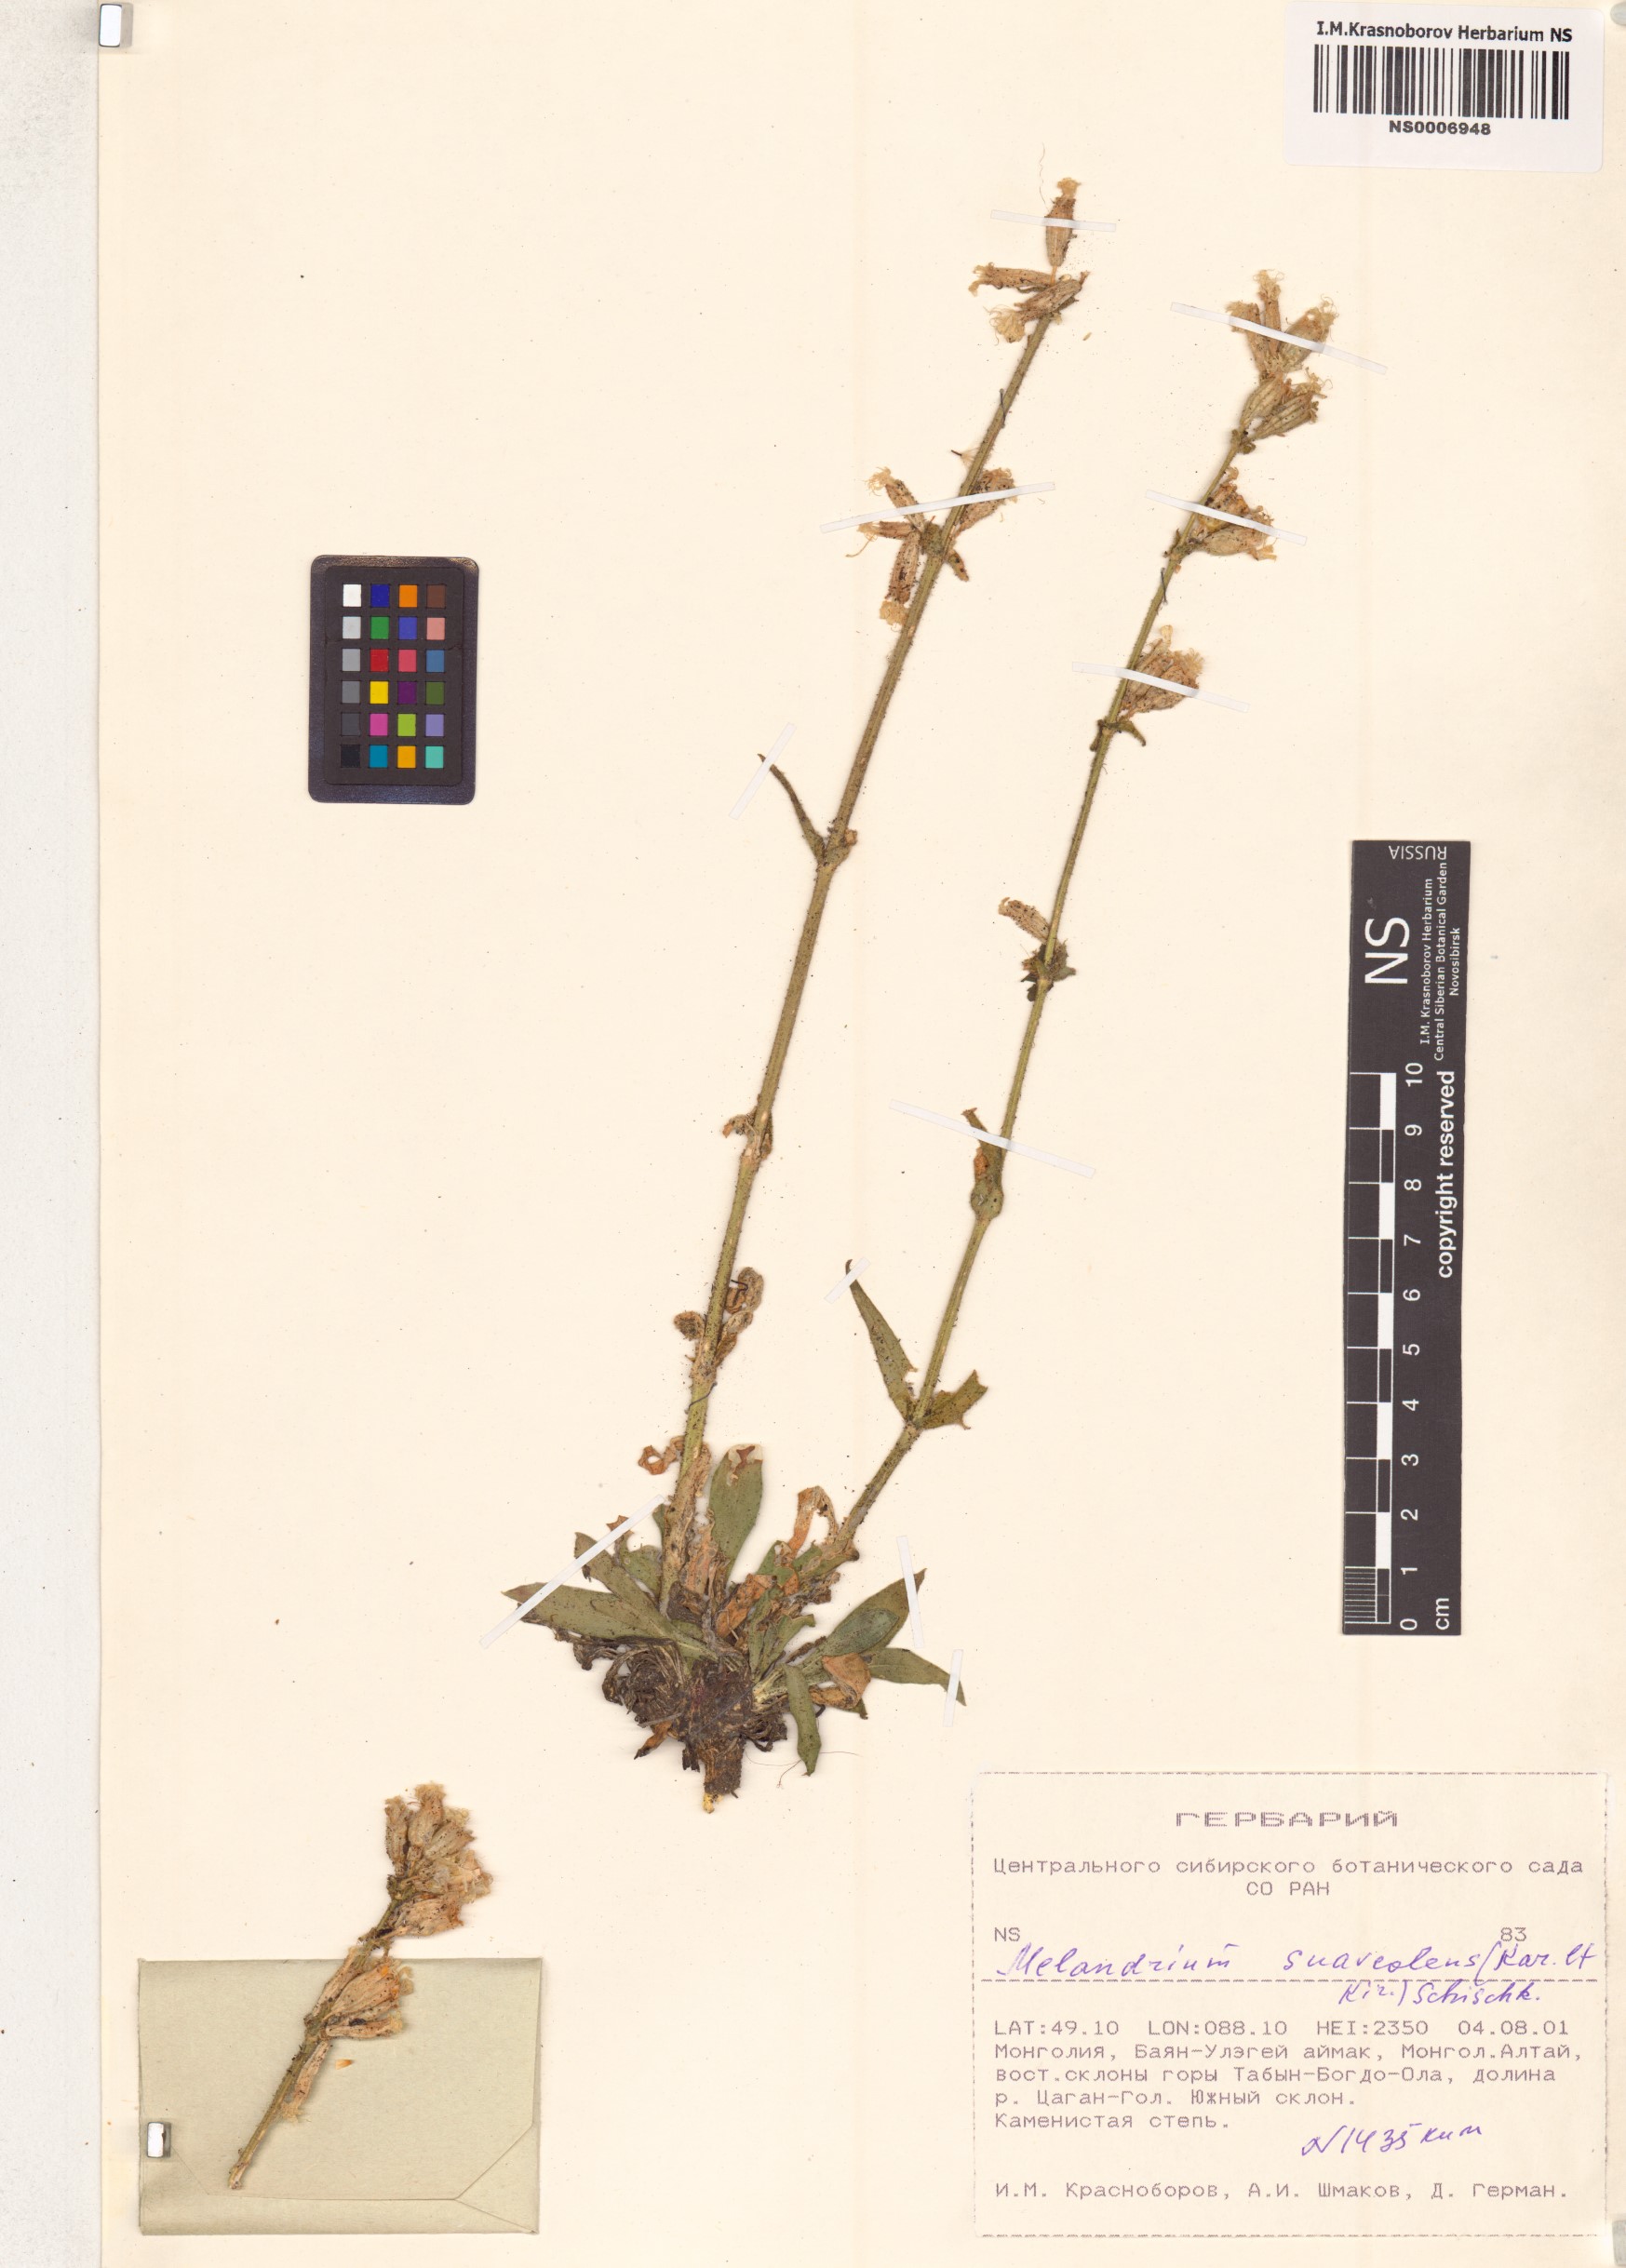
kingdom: Plantae
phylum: Tracheophyta
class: Magnoliopsida
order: Caryophyllales
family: Caryophyllaceae
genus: Silene
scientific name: Silene suaveolens
